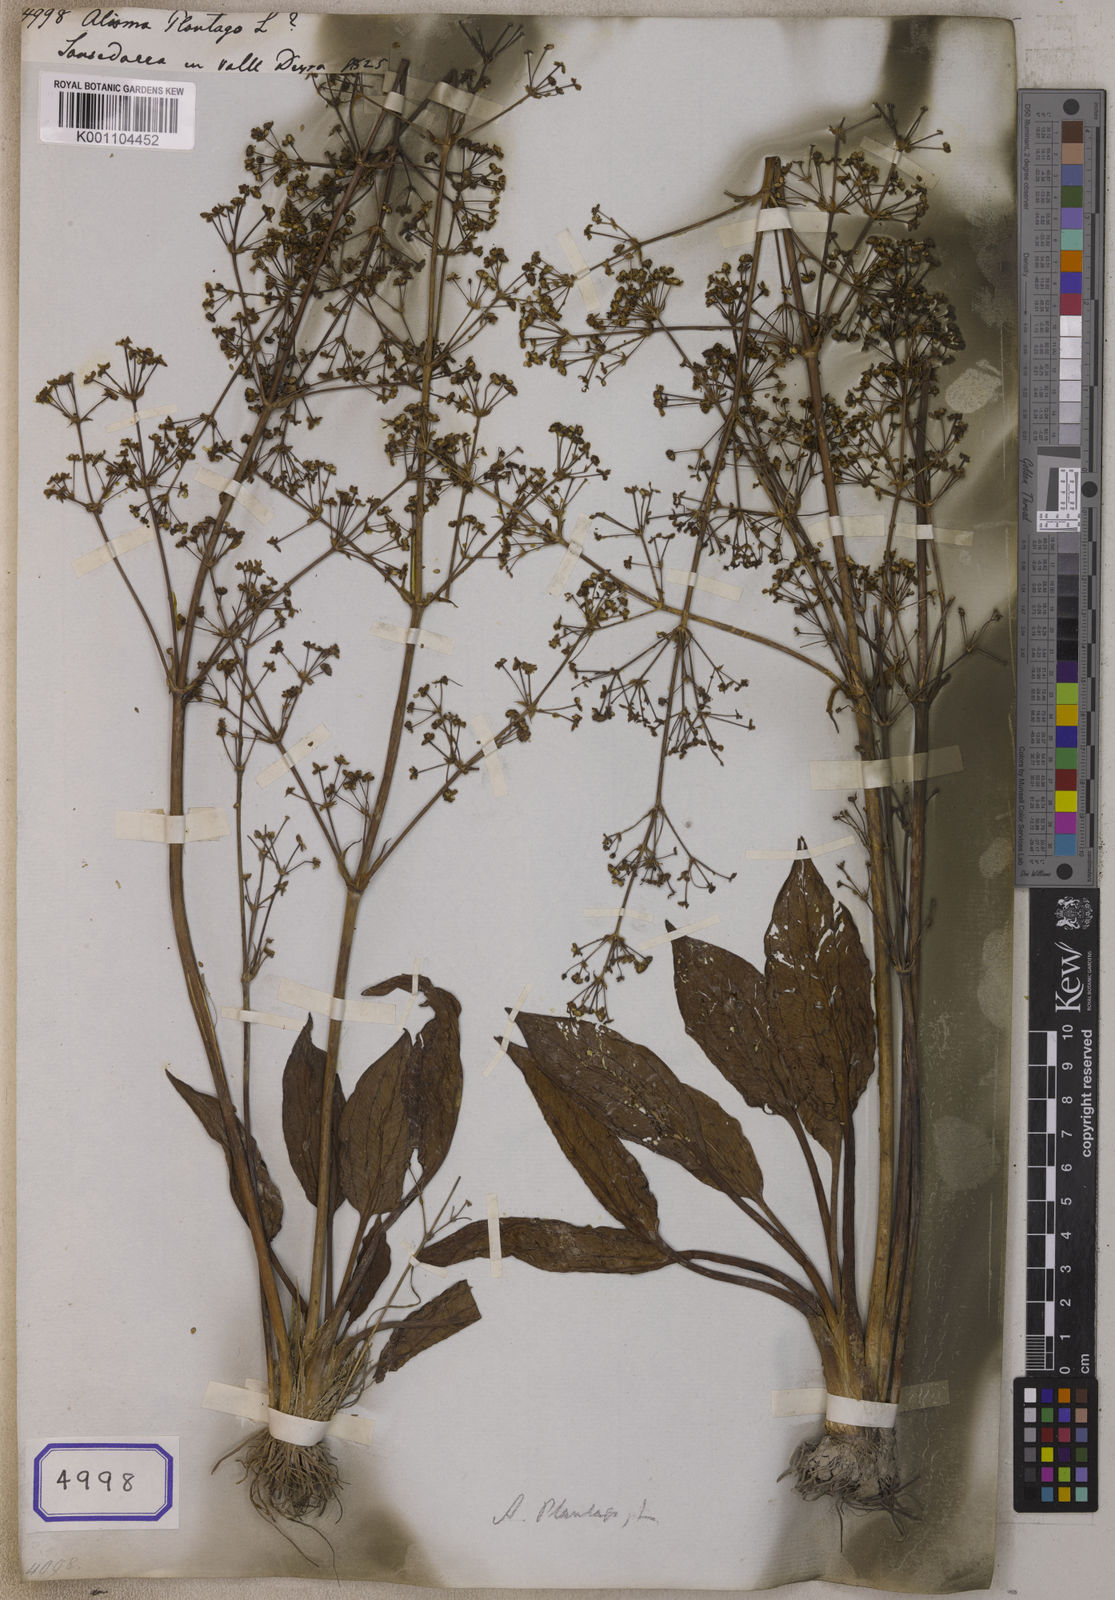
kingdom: Plantae
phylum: Tracheophyta
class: Liliopsida
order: Alismatales
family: Alismataceae
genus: Alisma
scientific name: Alisma plantago-aquatica
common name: Water-plantain
